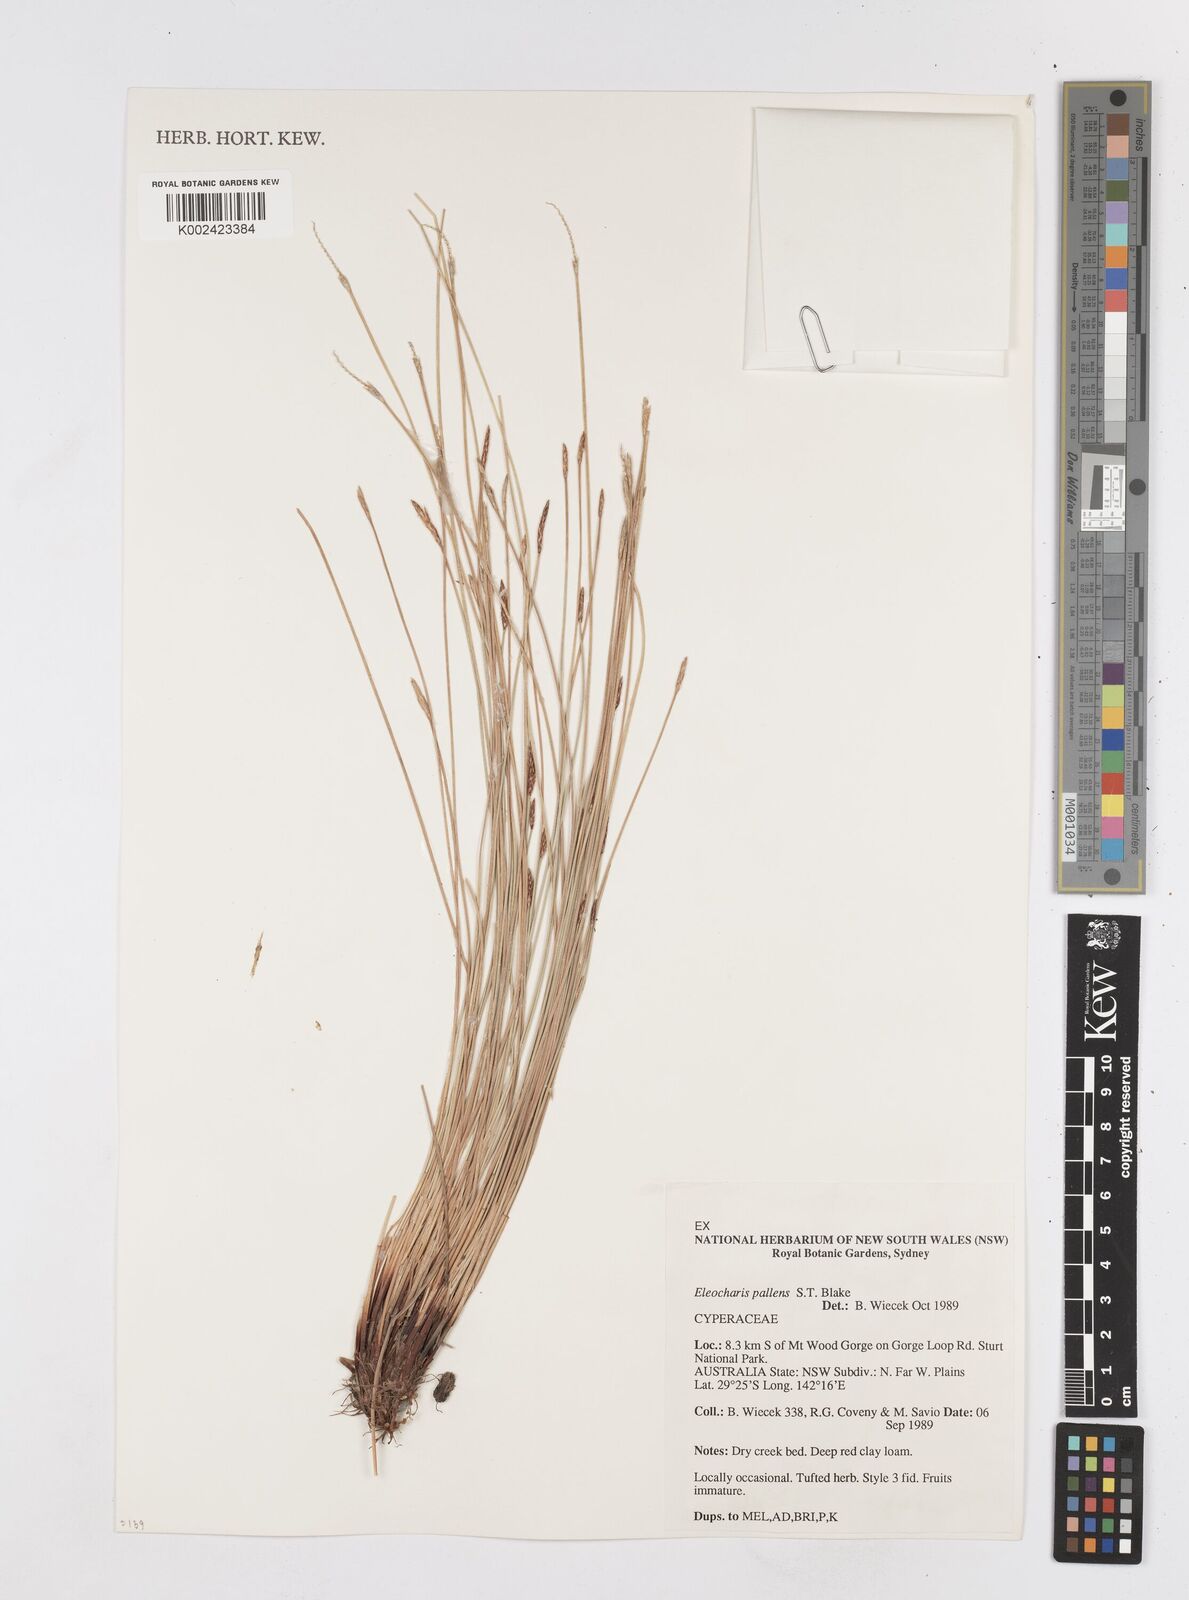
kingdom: Plantae
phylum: Tracheophyta
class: Liliopsida
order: Poales
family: Cyperaceae
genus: Eleocharis
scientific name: Eleocharis acuta
